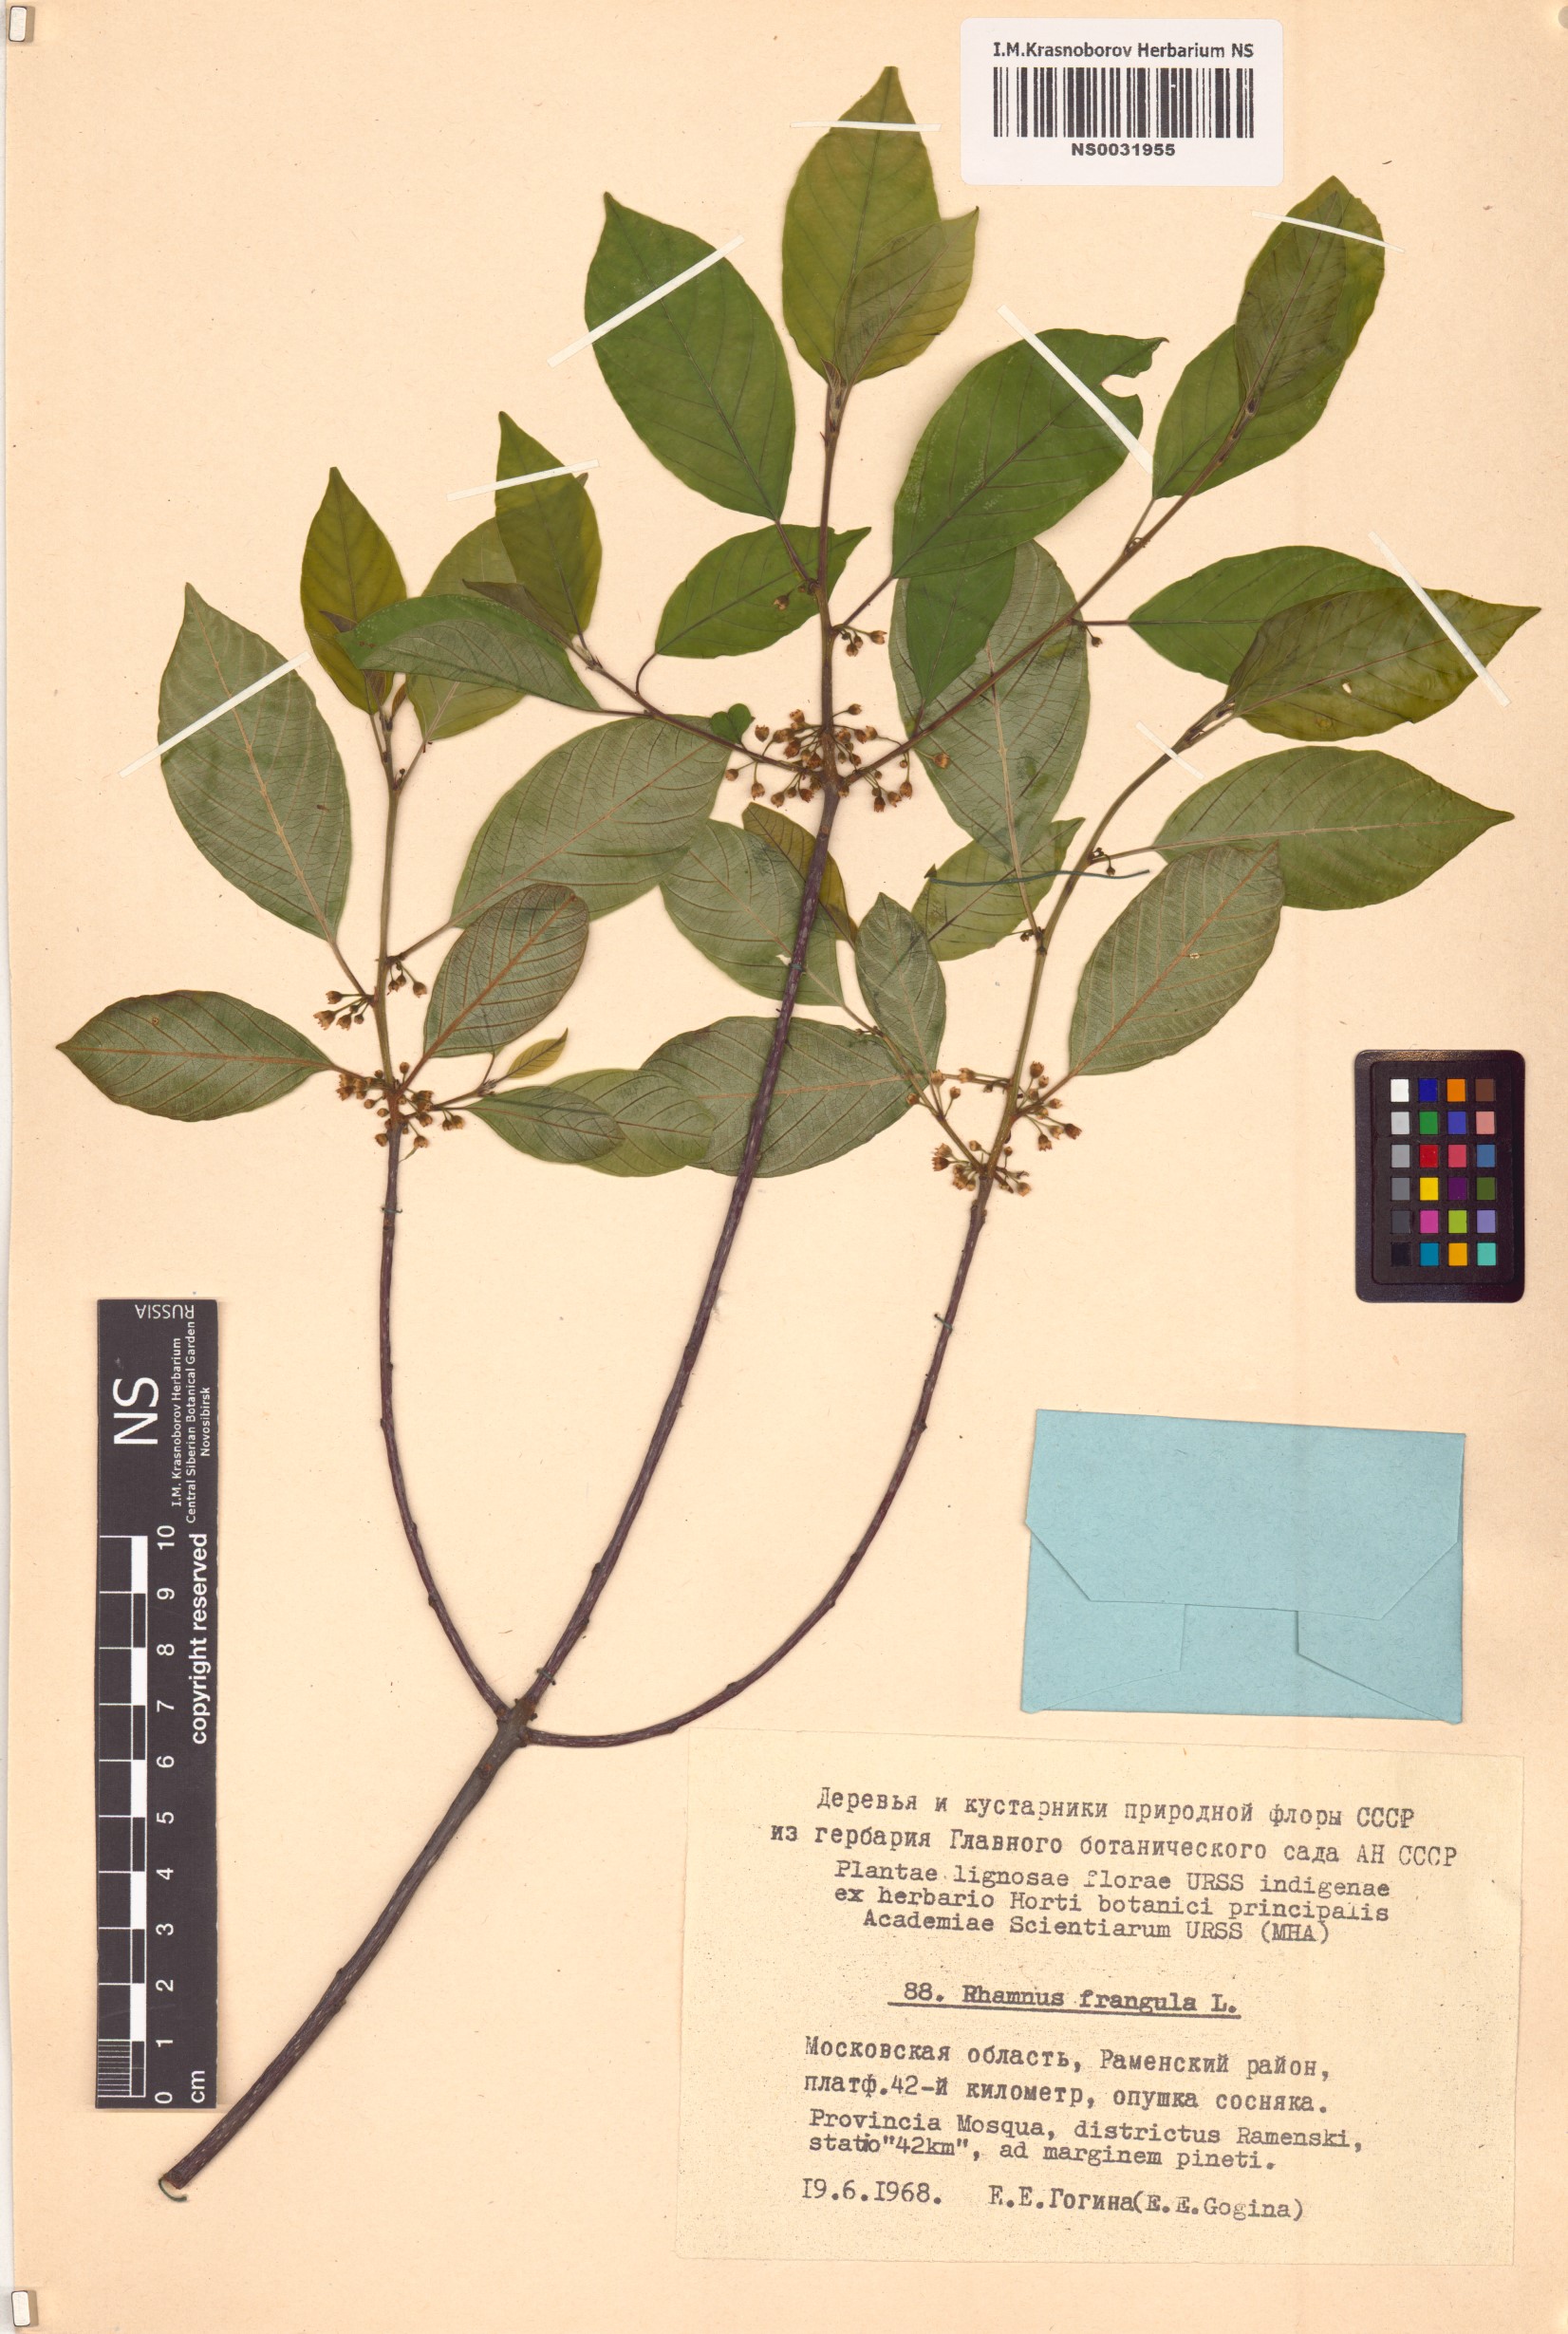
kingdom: Plantae
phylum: Tracheophyta
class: Magnoliopsida
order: Rosales
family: Rhamnaceae
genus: Frangula
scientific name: Frangula alnus
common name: Alder buckthorn
